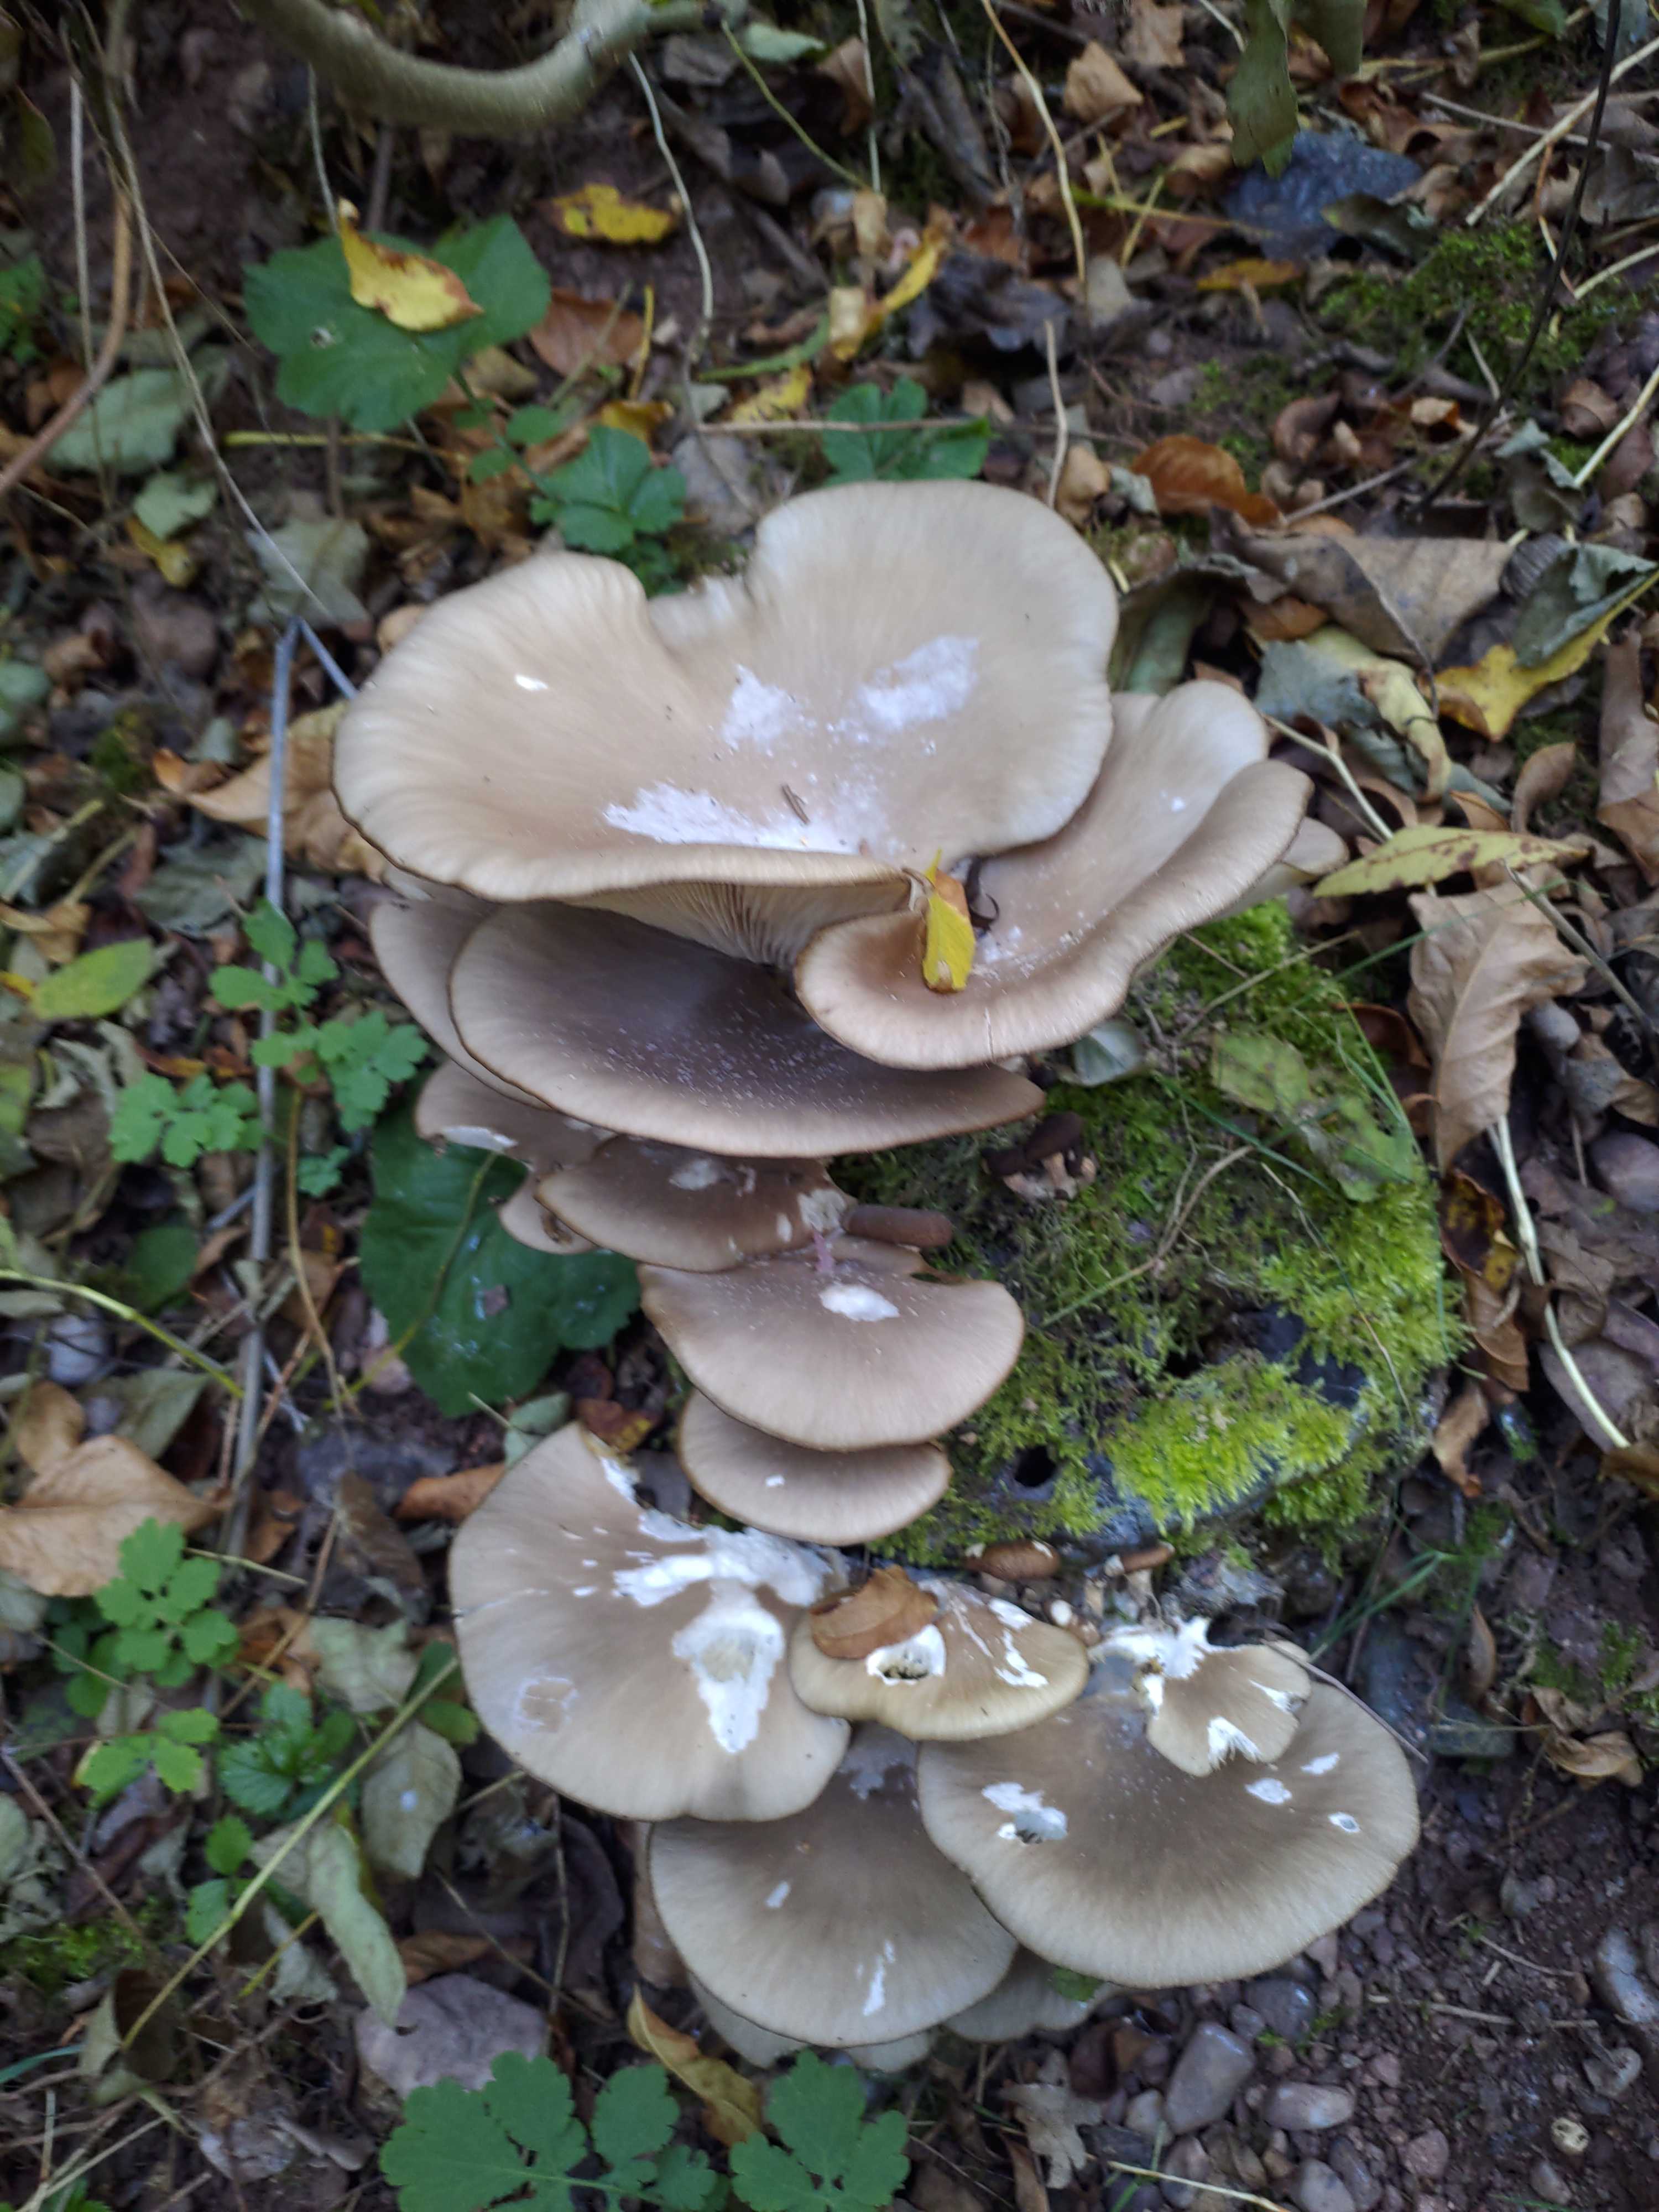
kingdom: Fungi
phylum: Basidiomycota
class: Agaricomycetes
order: Agaricales
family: Pleurotaceae
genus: Pleurotus
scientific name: Pleurotus ostreatus
